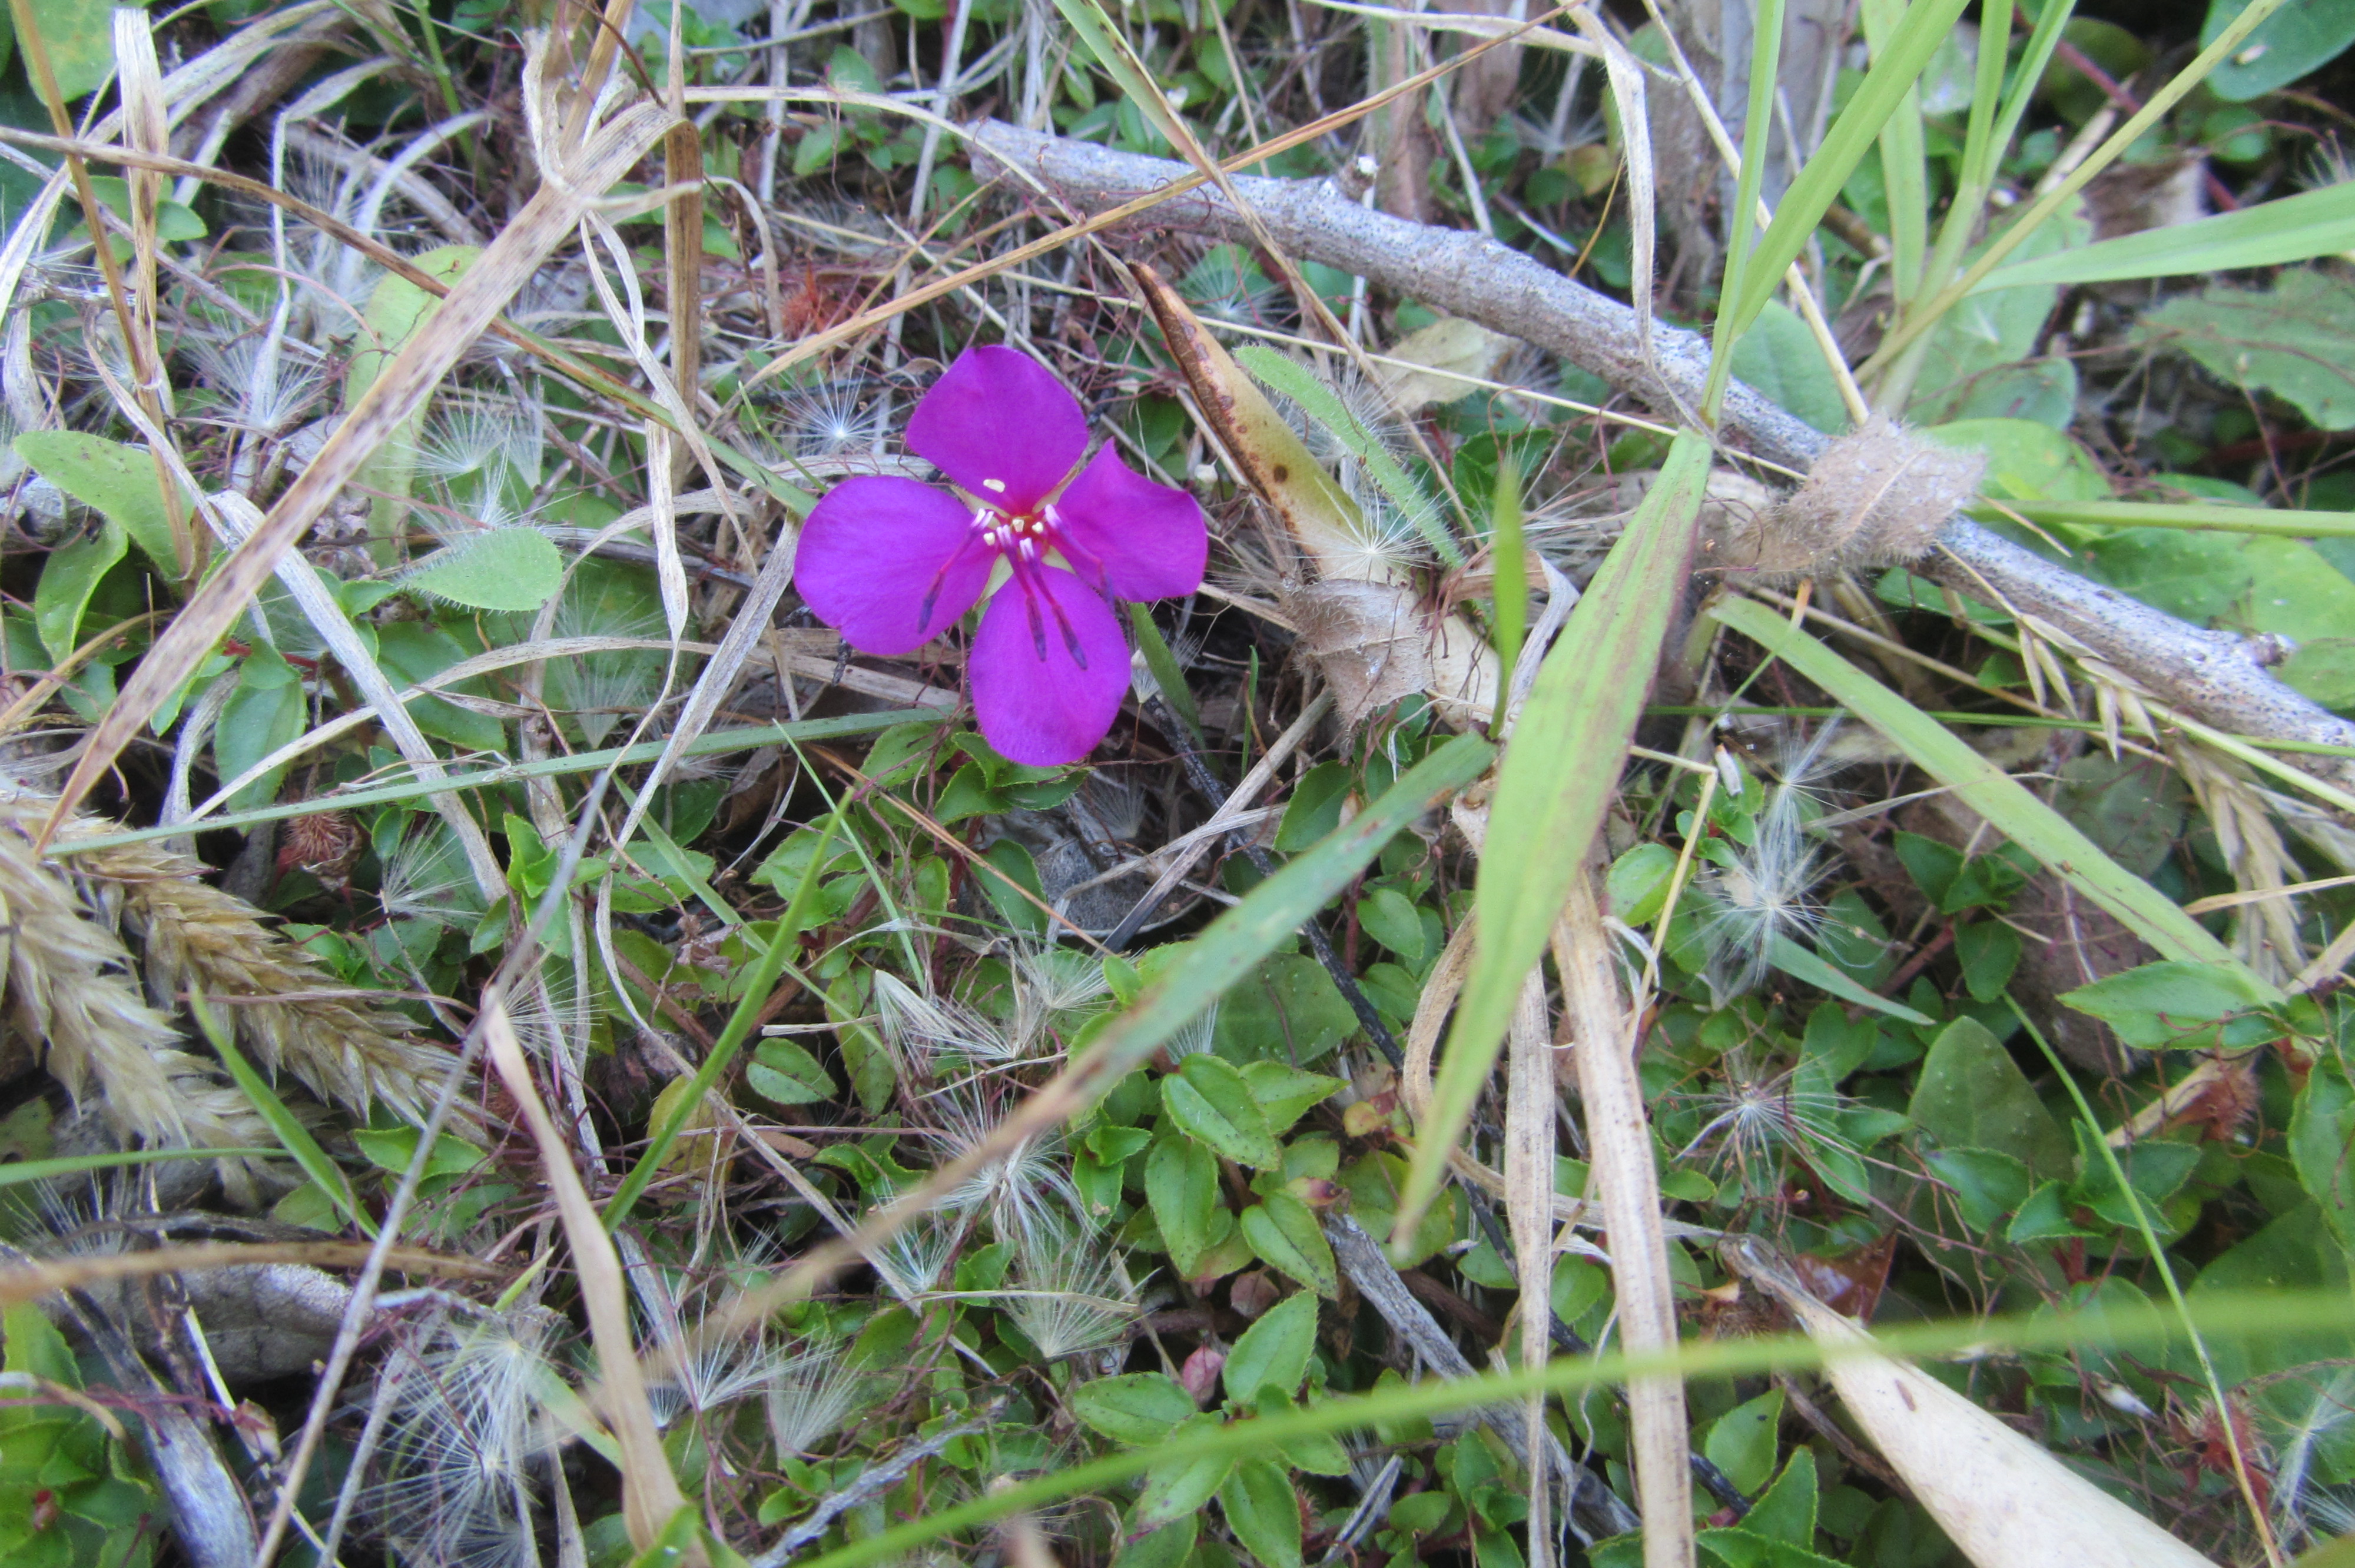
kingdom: Plantae
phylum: Tracheophyta
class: Magnoliopsida
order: Myrtales
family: Melastomataceae
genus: Heterocentron
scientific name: Heterocentron elegans
